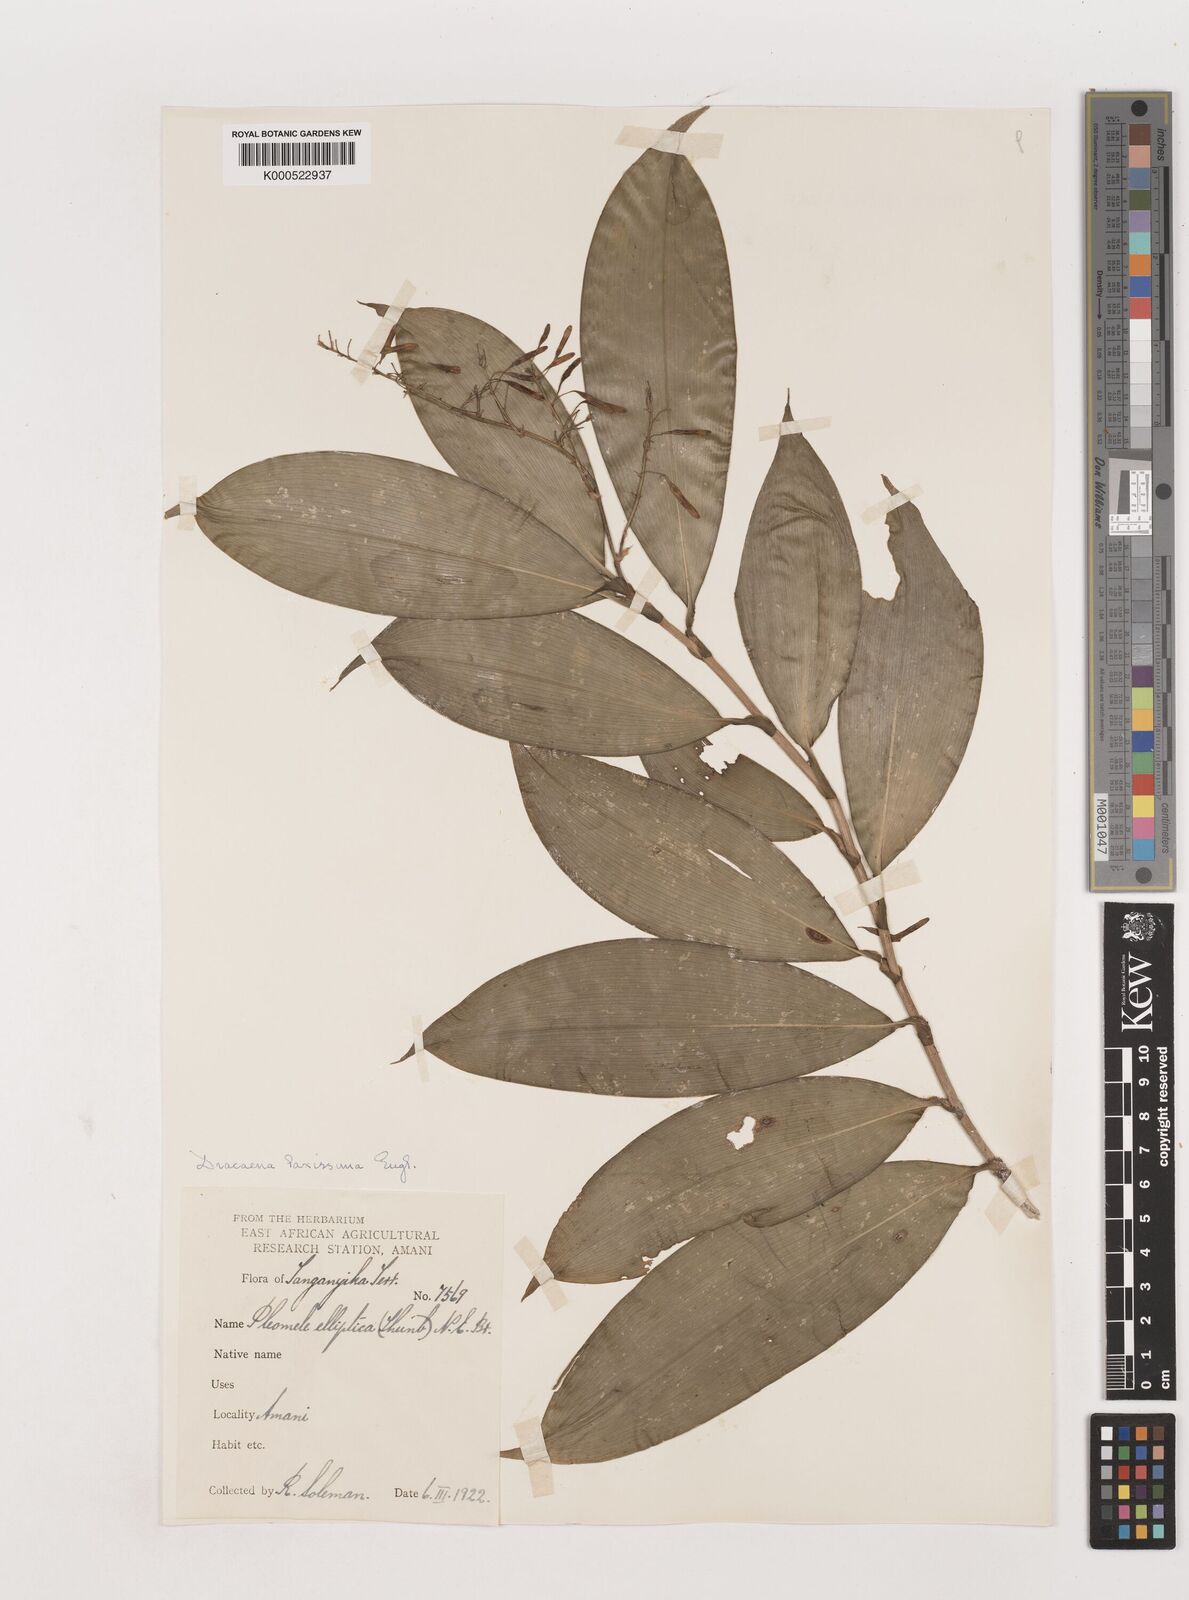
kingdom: Plantae
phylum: Tracheophyta
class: Liliopsida
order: Asparagales
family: Asparagaceae
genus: Dracaena
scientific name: Dracaena laxissima
